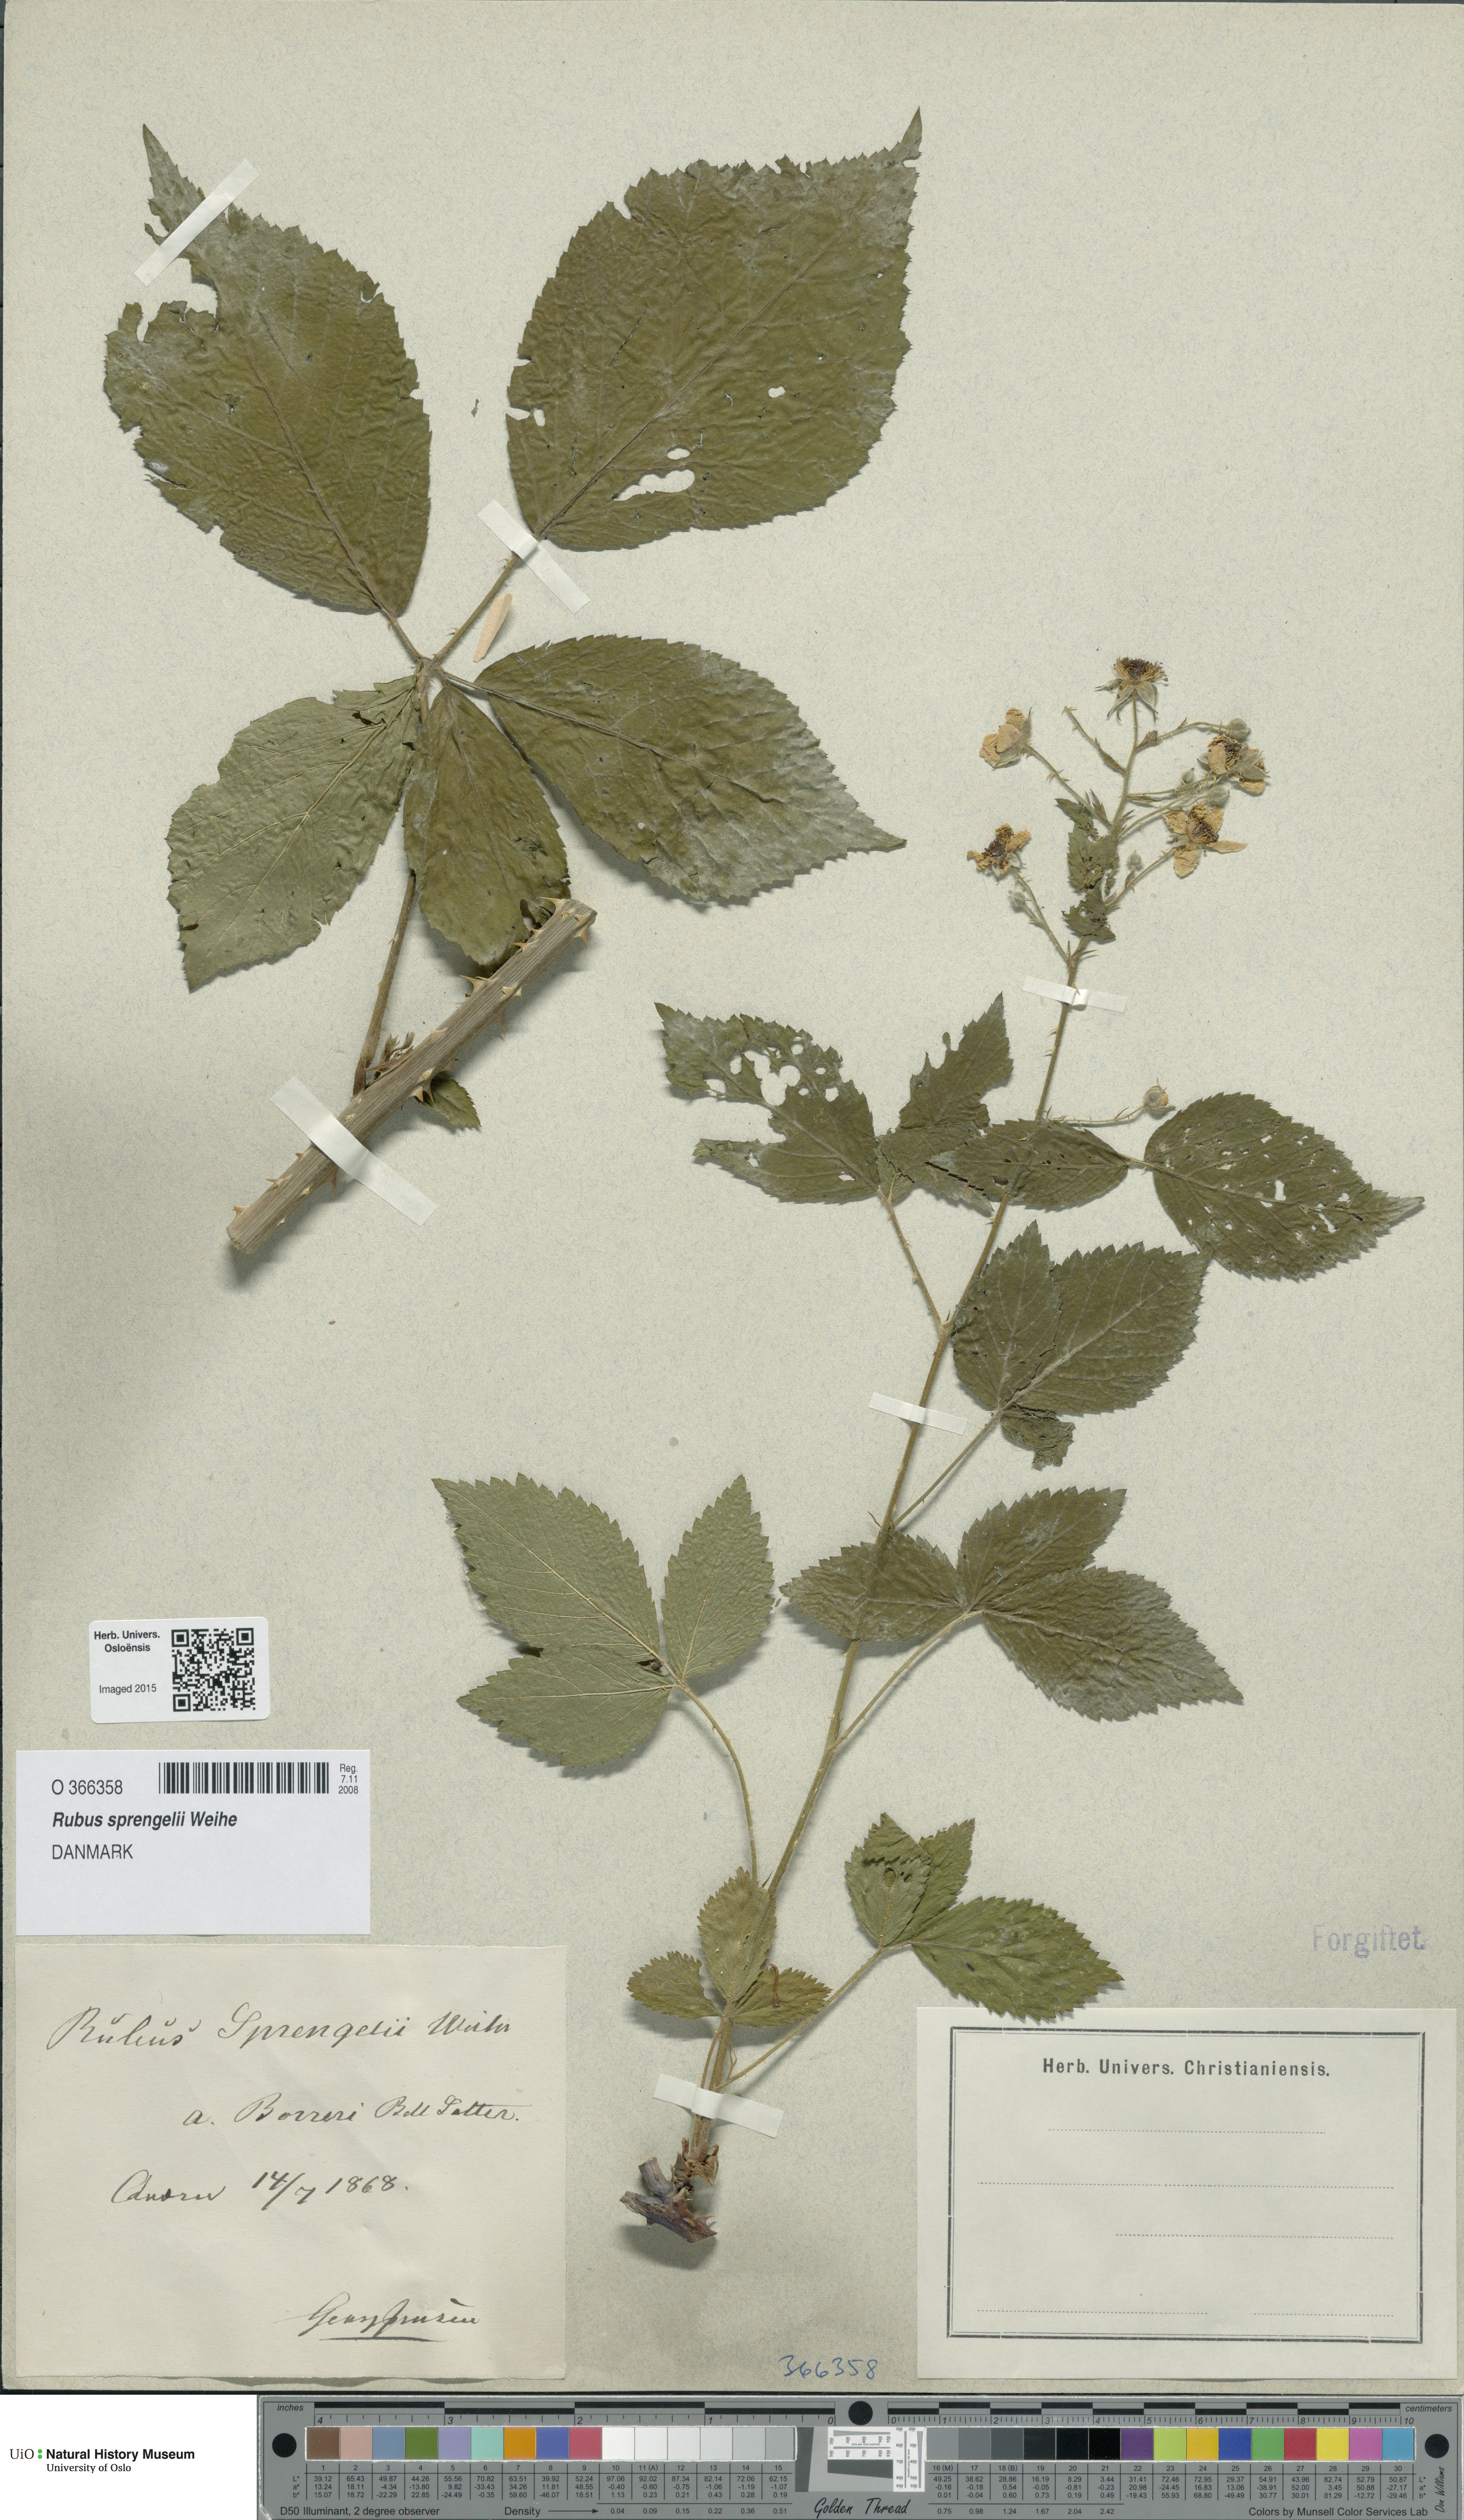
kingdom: Plantae
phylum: Tracheophyta
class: Magnoliopsida
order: Rosales
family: Rosaceae
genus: Rubus
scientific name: Rubus sprengelii
